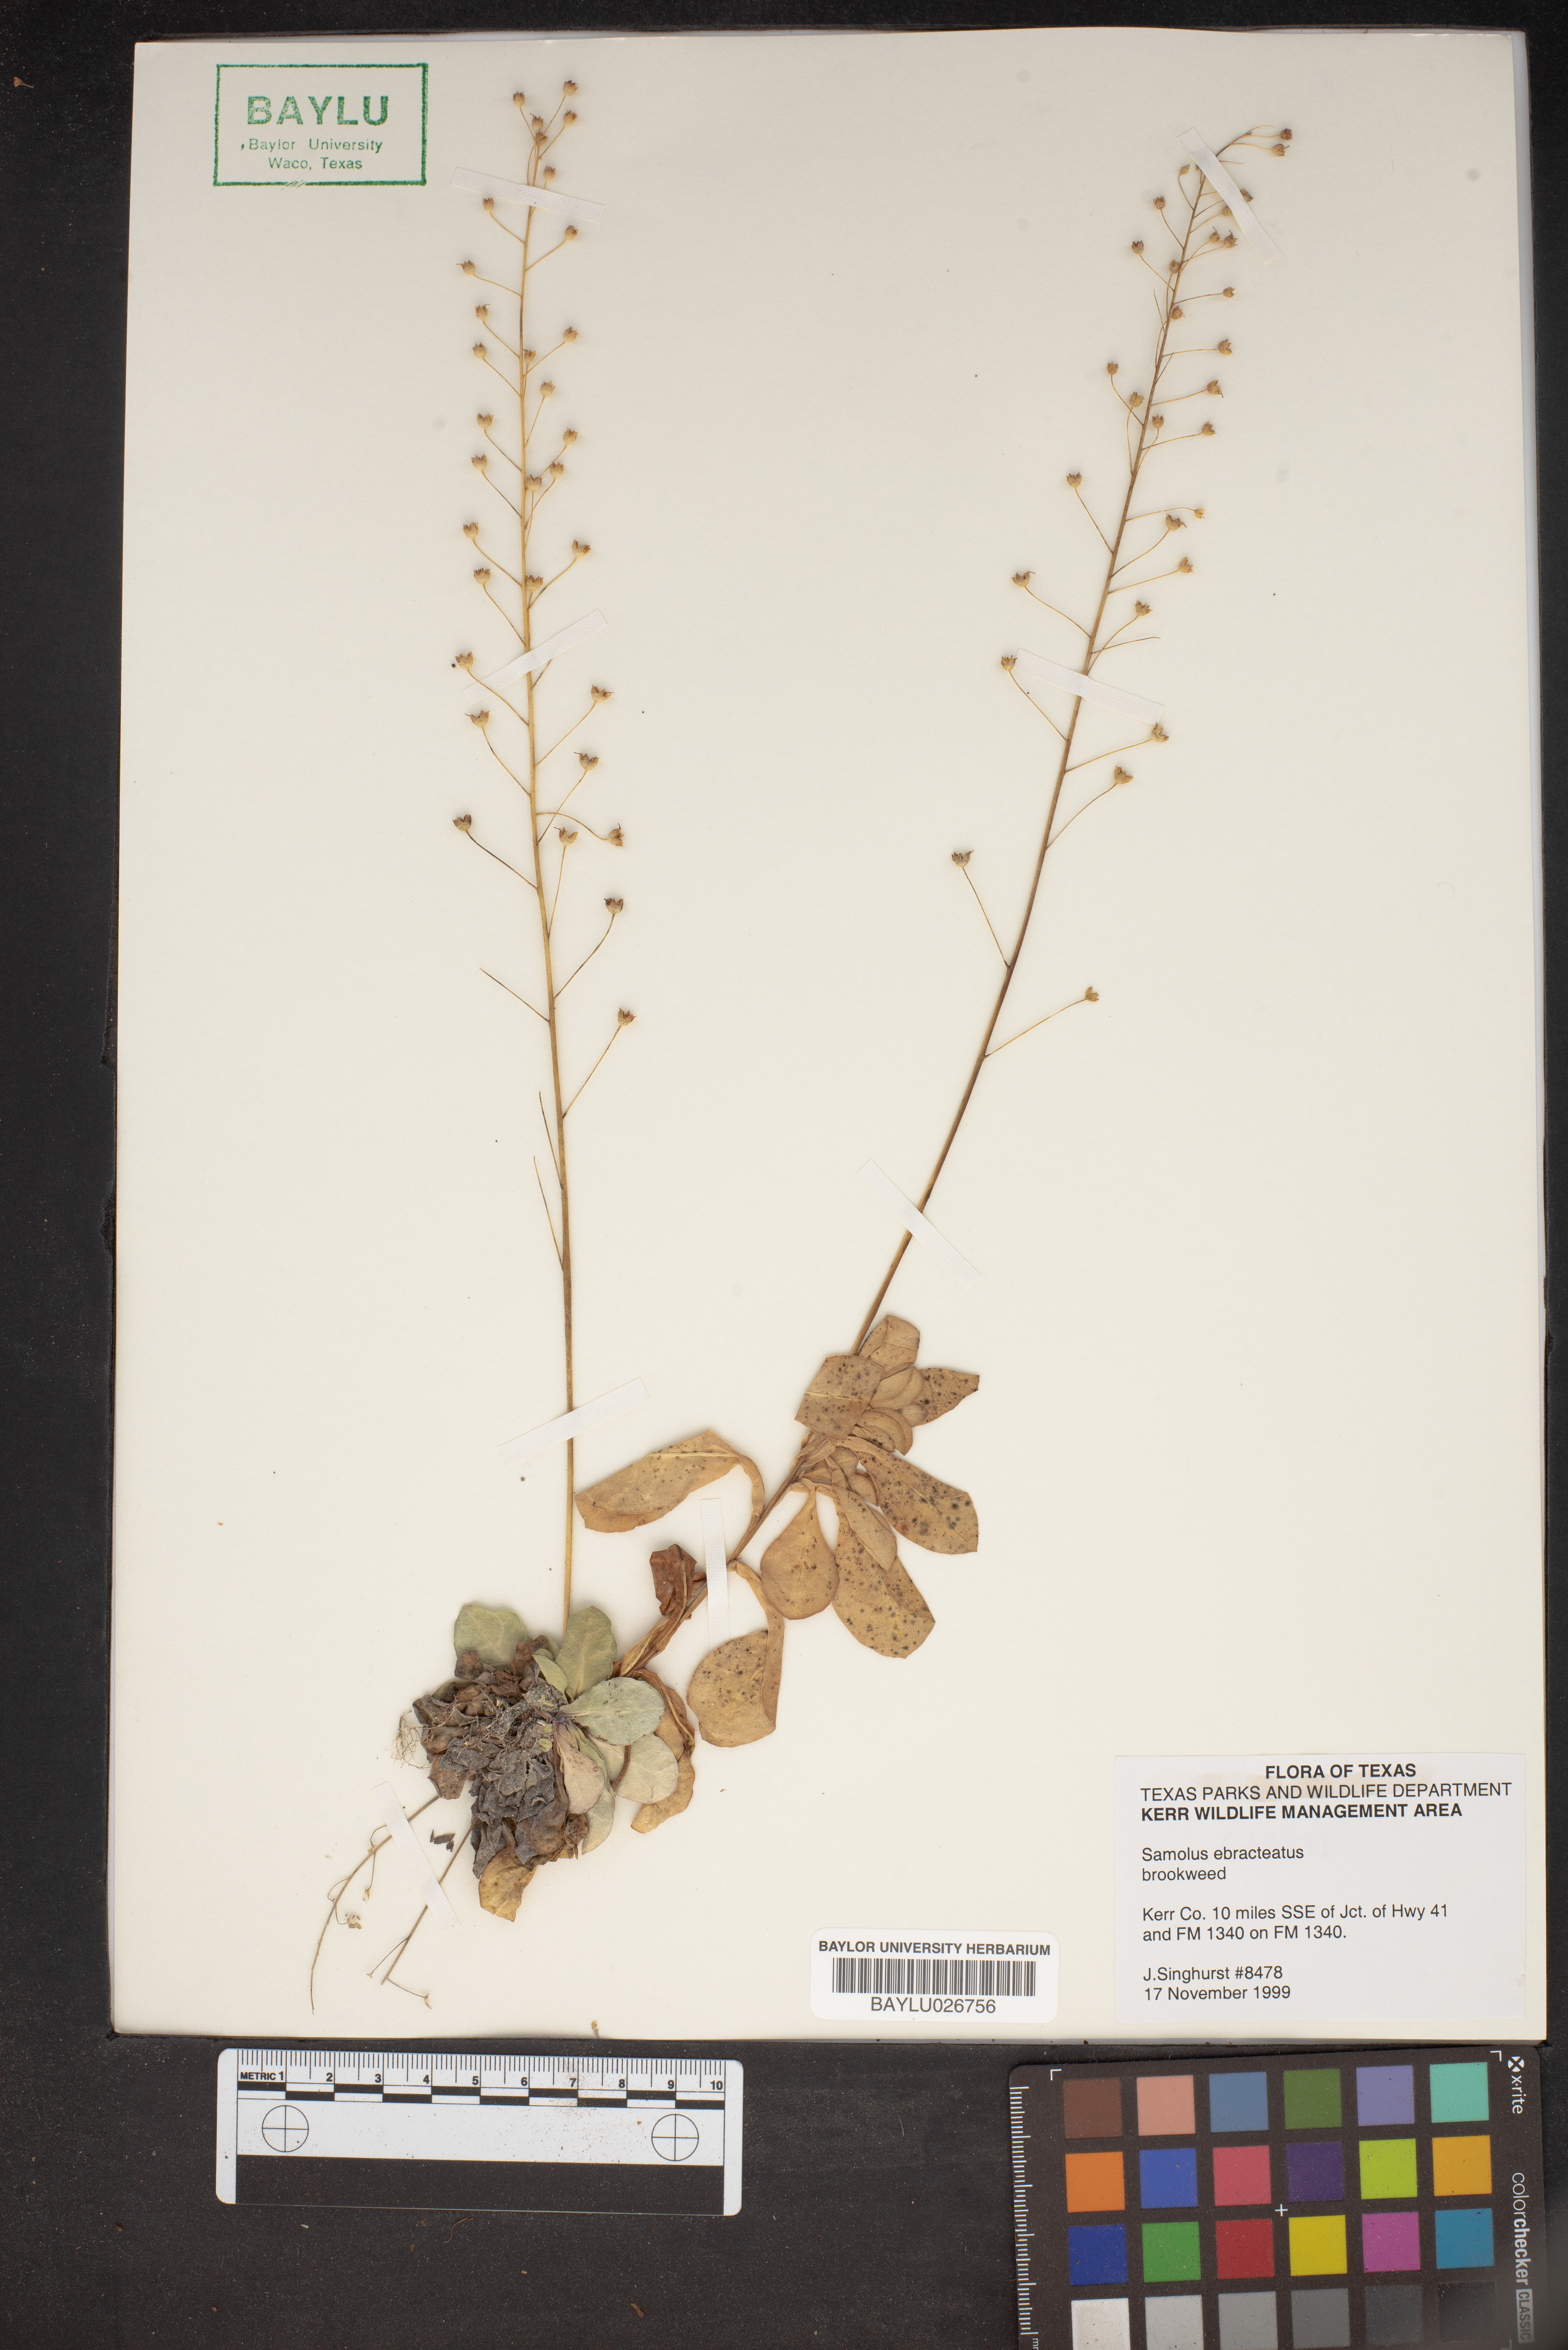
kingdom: Plantae
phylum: Tracheophyta
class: Magnoliopsida
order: Ericales
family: Primulaceae
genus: Samolus
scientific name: Samolus ebracteatus
